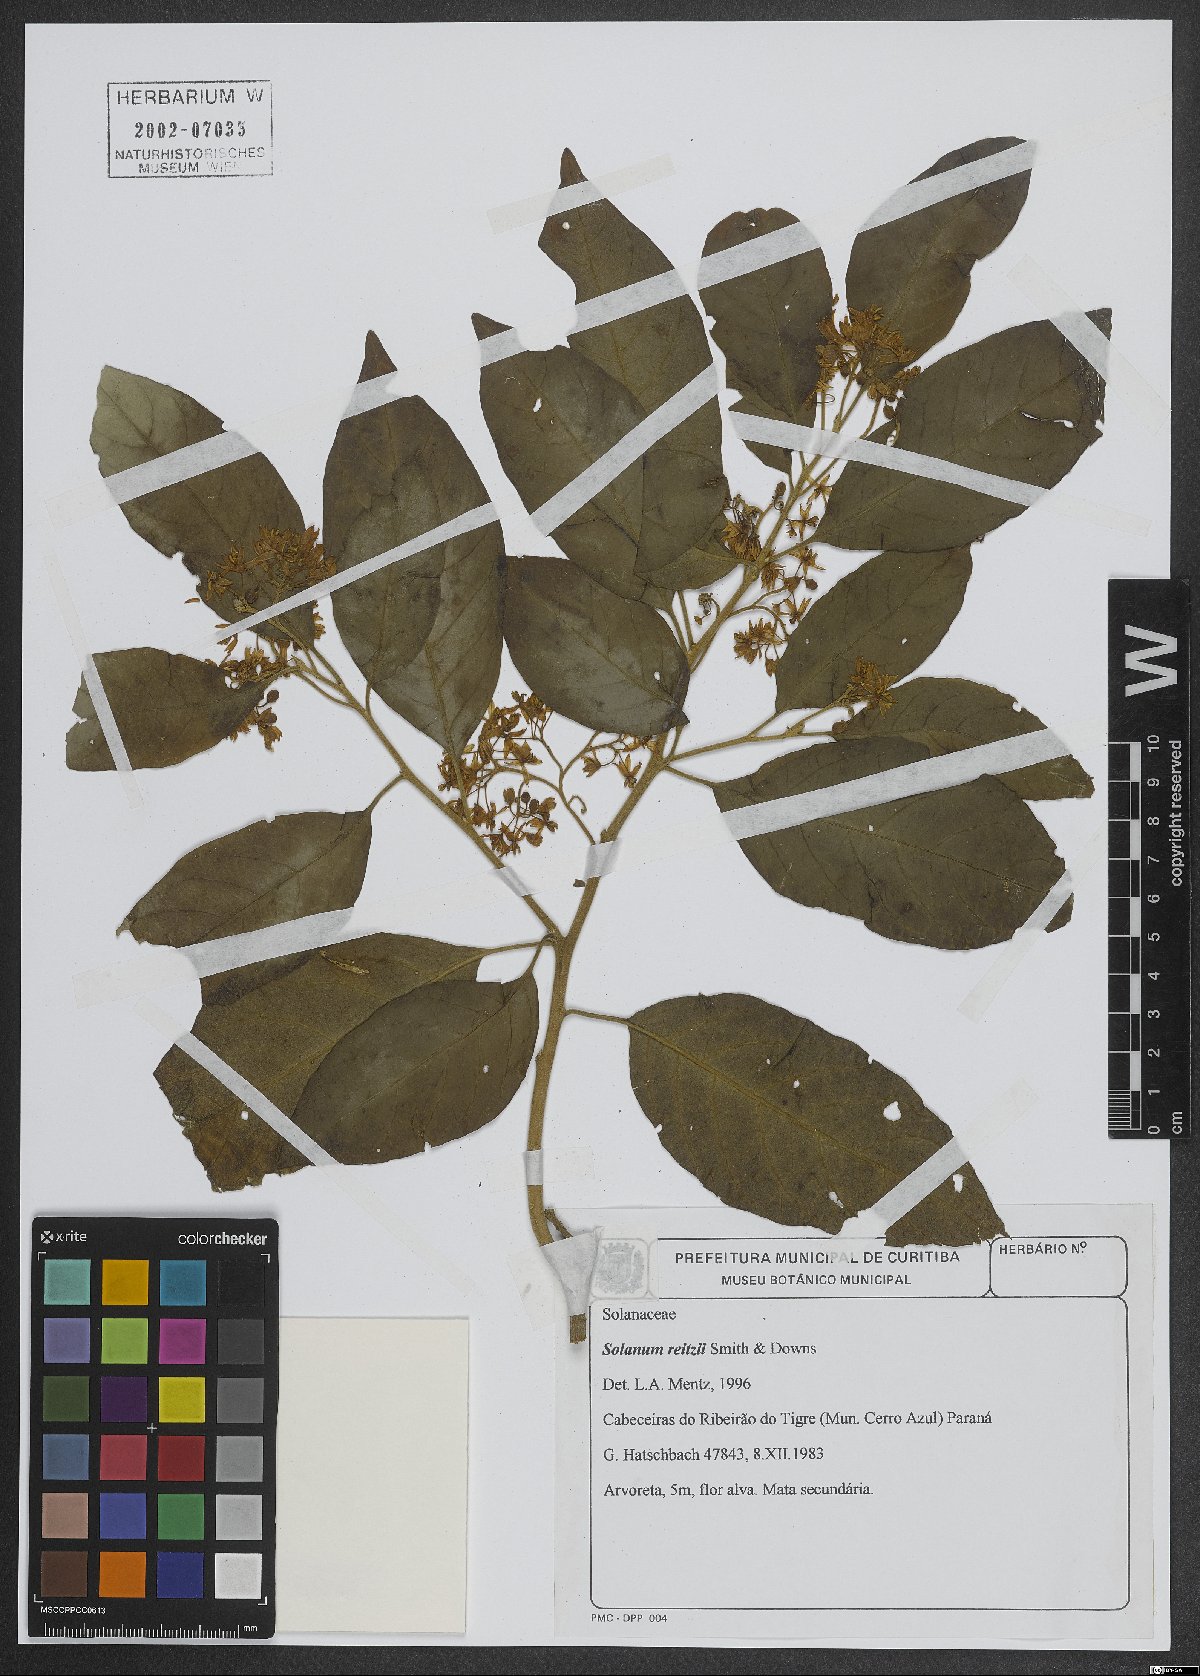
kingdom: Plantae
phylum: Tracheophyta
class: Magnoliopsida
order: Solanales
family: Solanaceae
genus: Solanum
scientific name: Solanum reitzii
